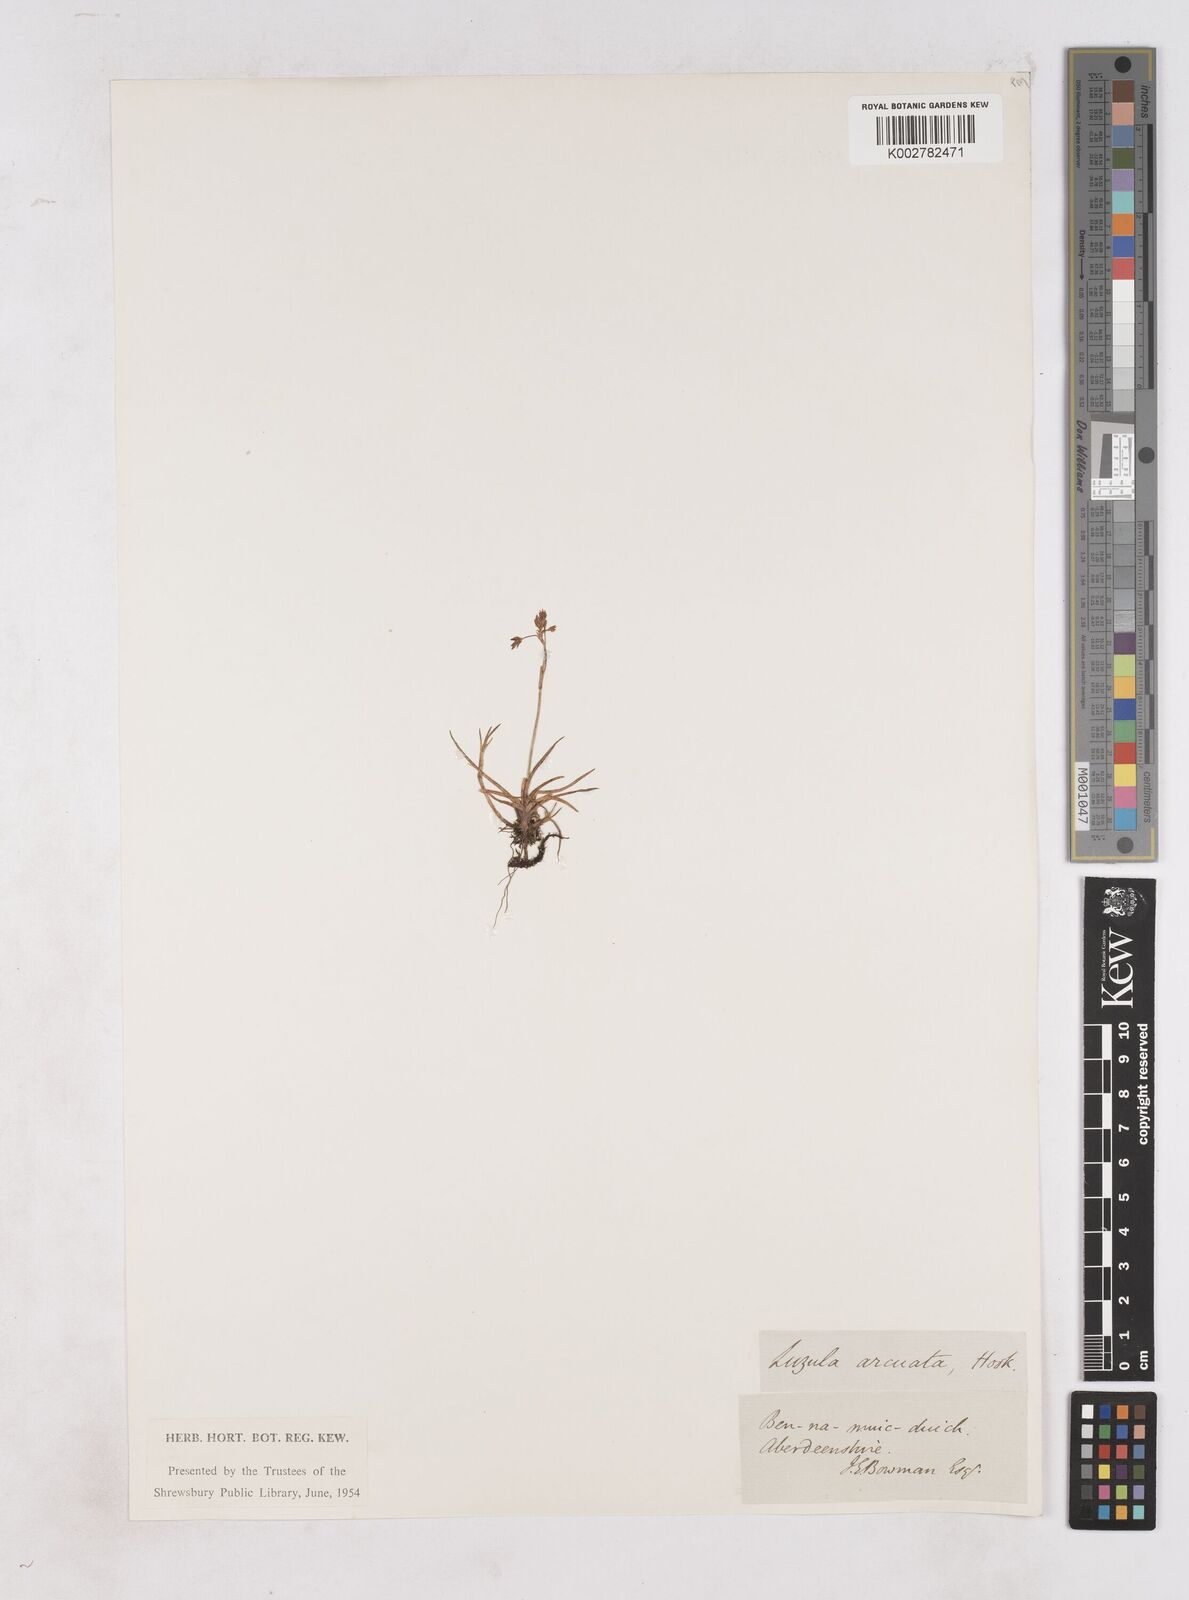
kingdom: Plantae
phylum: Tracheophyta
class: Liliopsida
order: Poales
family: Juncaceae
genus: Luzula
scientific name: Luzula arcuata
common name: Curved wood-rush
